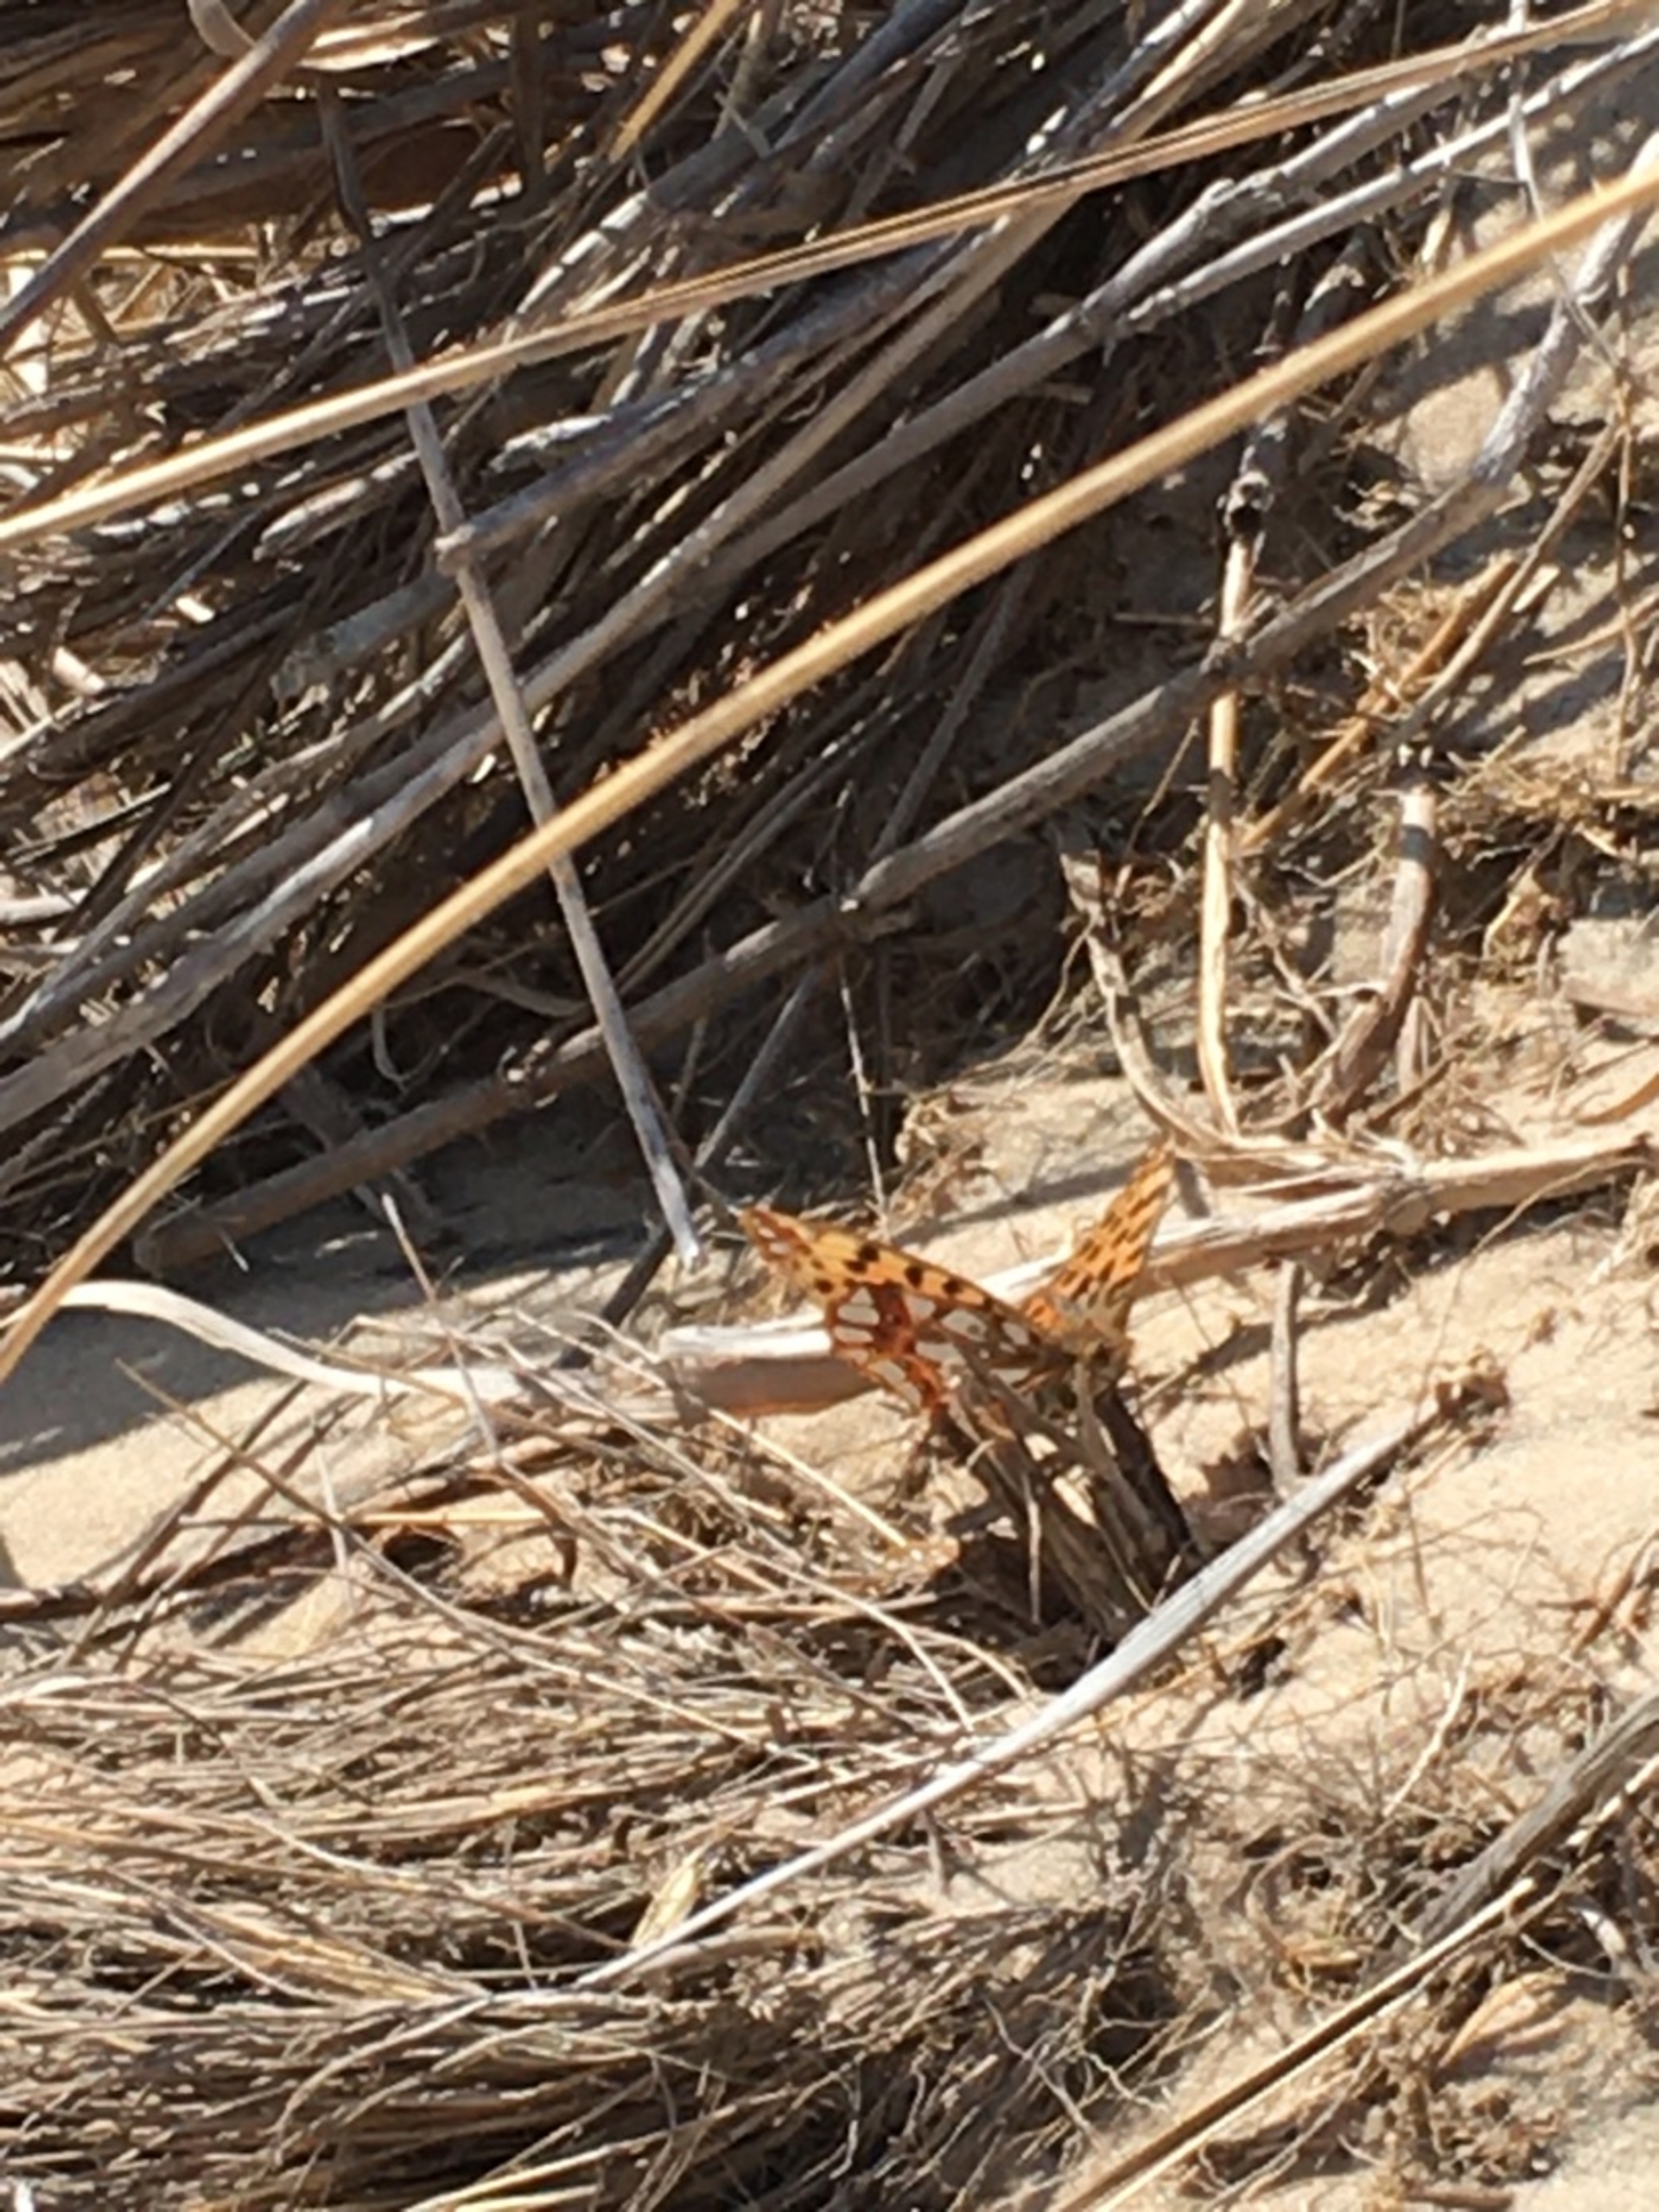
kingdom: Animalia
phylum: Arthropoda
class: Insecta
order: Lepidoptera
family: Nymphalidae
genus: Issoria
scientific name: Issoria lathonia
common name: Storplettet perlemorsommerfugl
